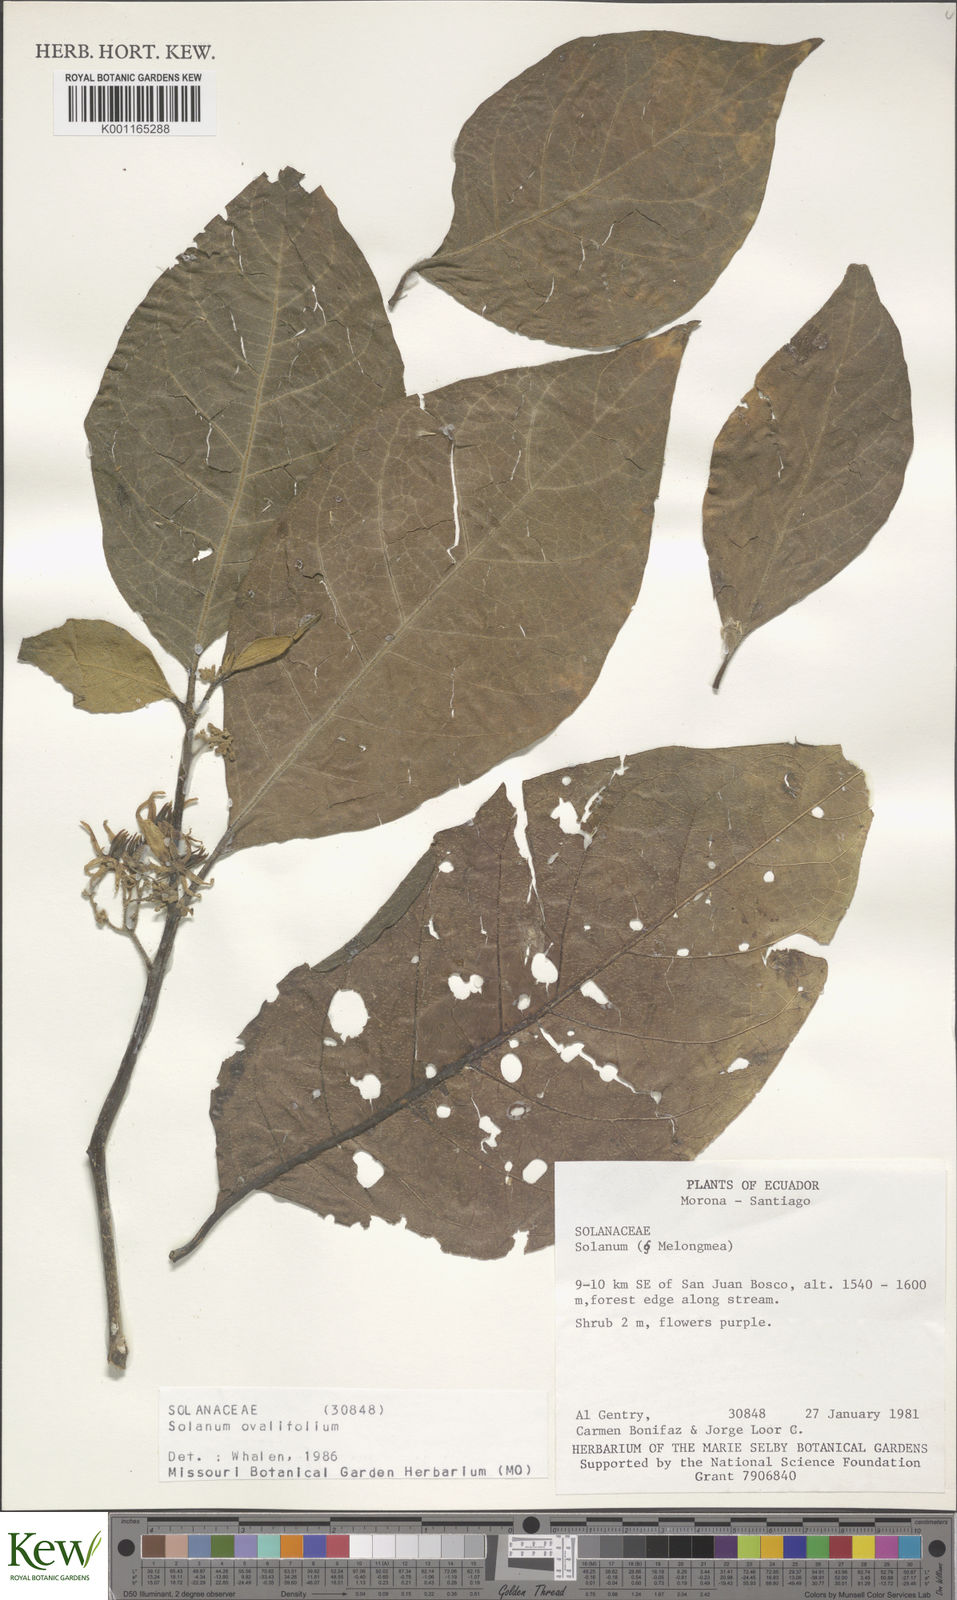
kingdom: Plantae
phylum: Tracheophyta
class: Magnoliopsida
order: Solanales
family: Solanaceae
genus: Solanum
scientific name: Solanum ovalifolium
